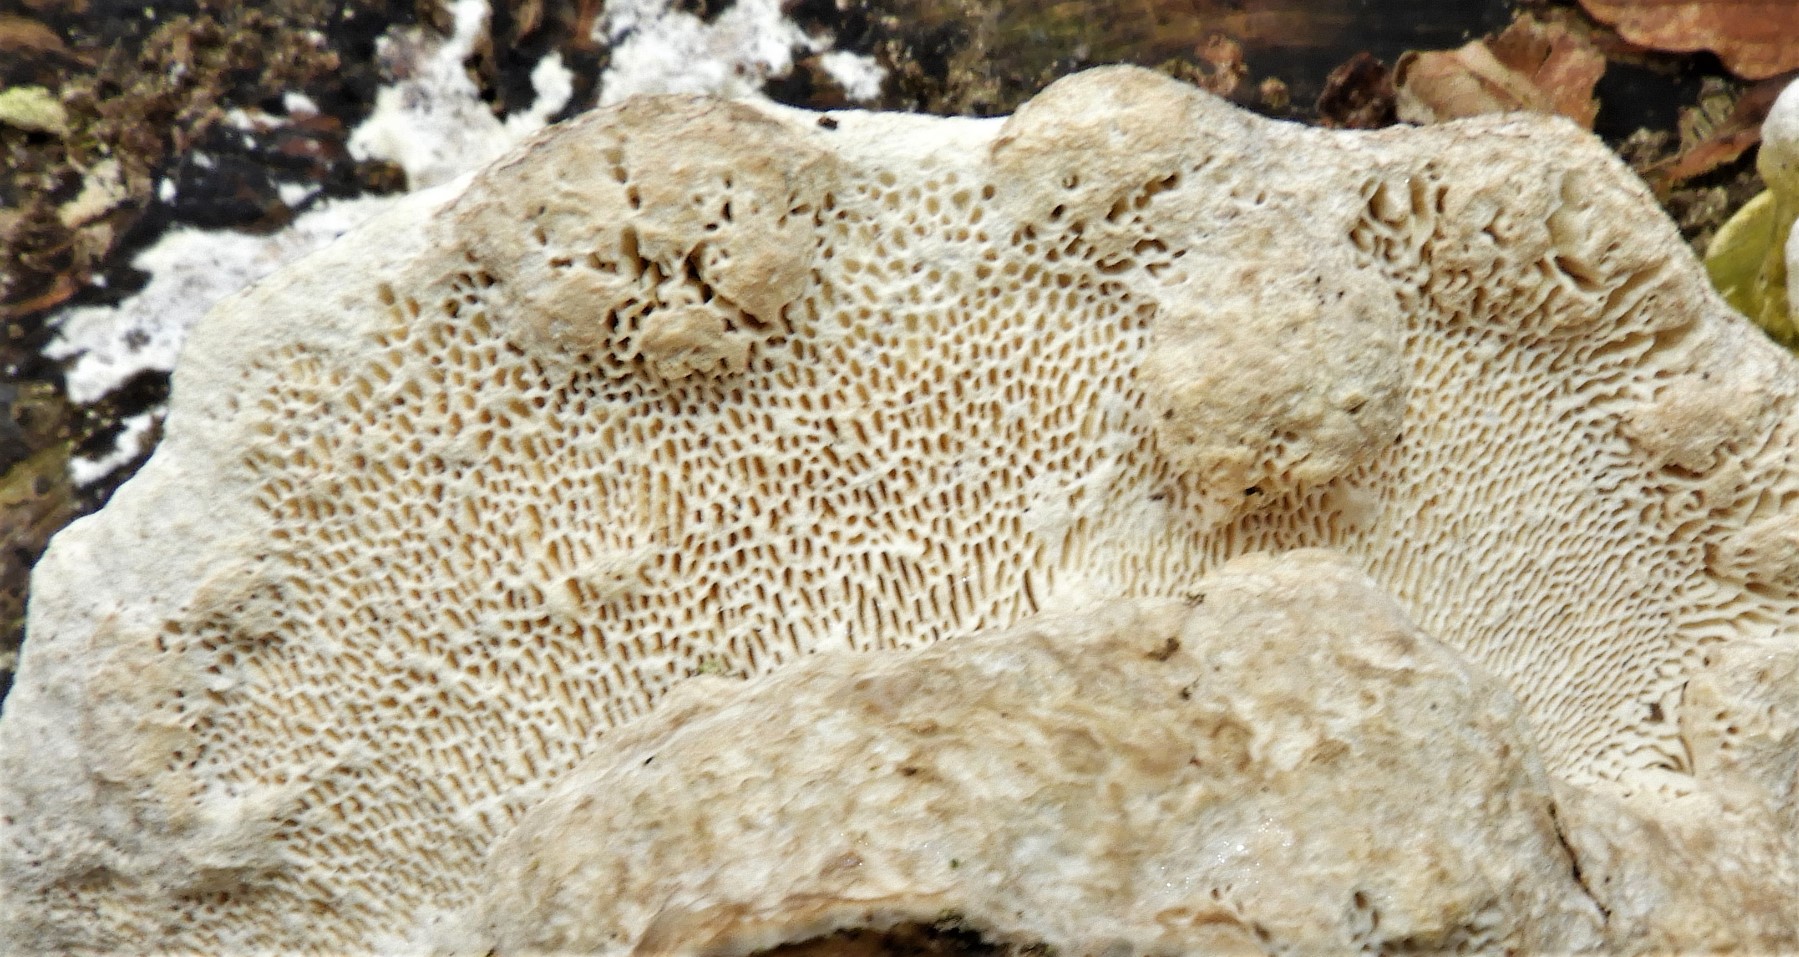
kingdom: Fungi
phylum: Basidiomycota
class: Agaricomycetes
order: Polyporales
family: Polyporaceae
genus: Trametes
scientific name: Trametes gibbosa
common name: puklet læderporesvamp
